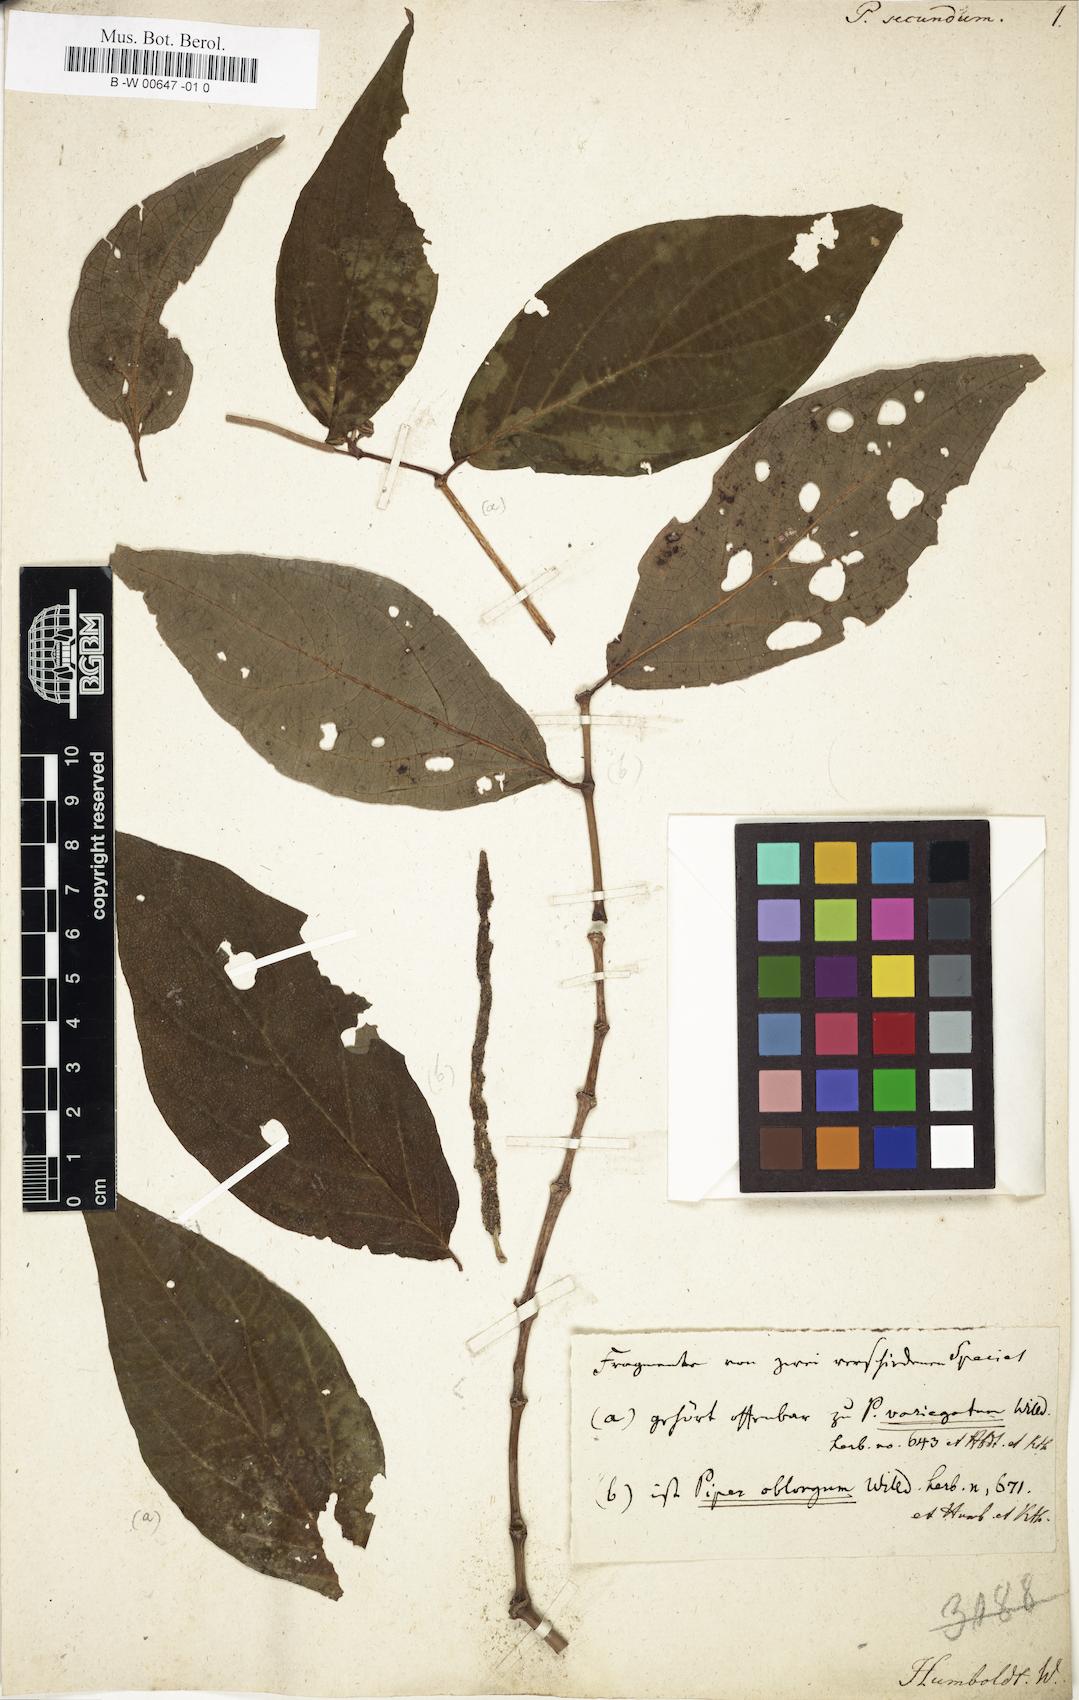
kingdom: Plantae
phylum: Tracheophyta
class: Magnoliopsida
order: Piperales
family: Piperaceae
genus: Piper
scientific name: Piper secundum
